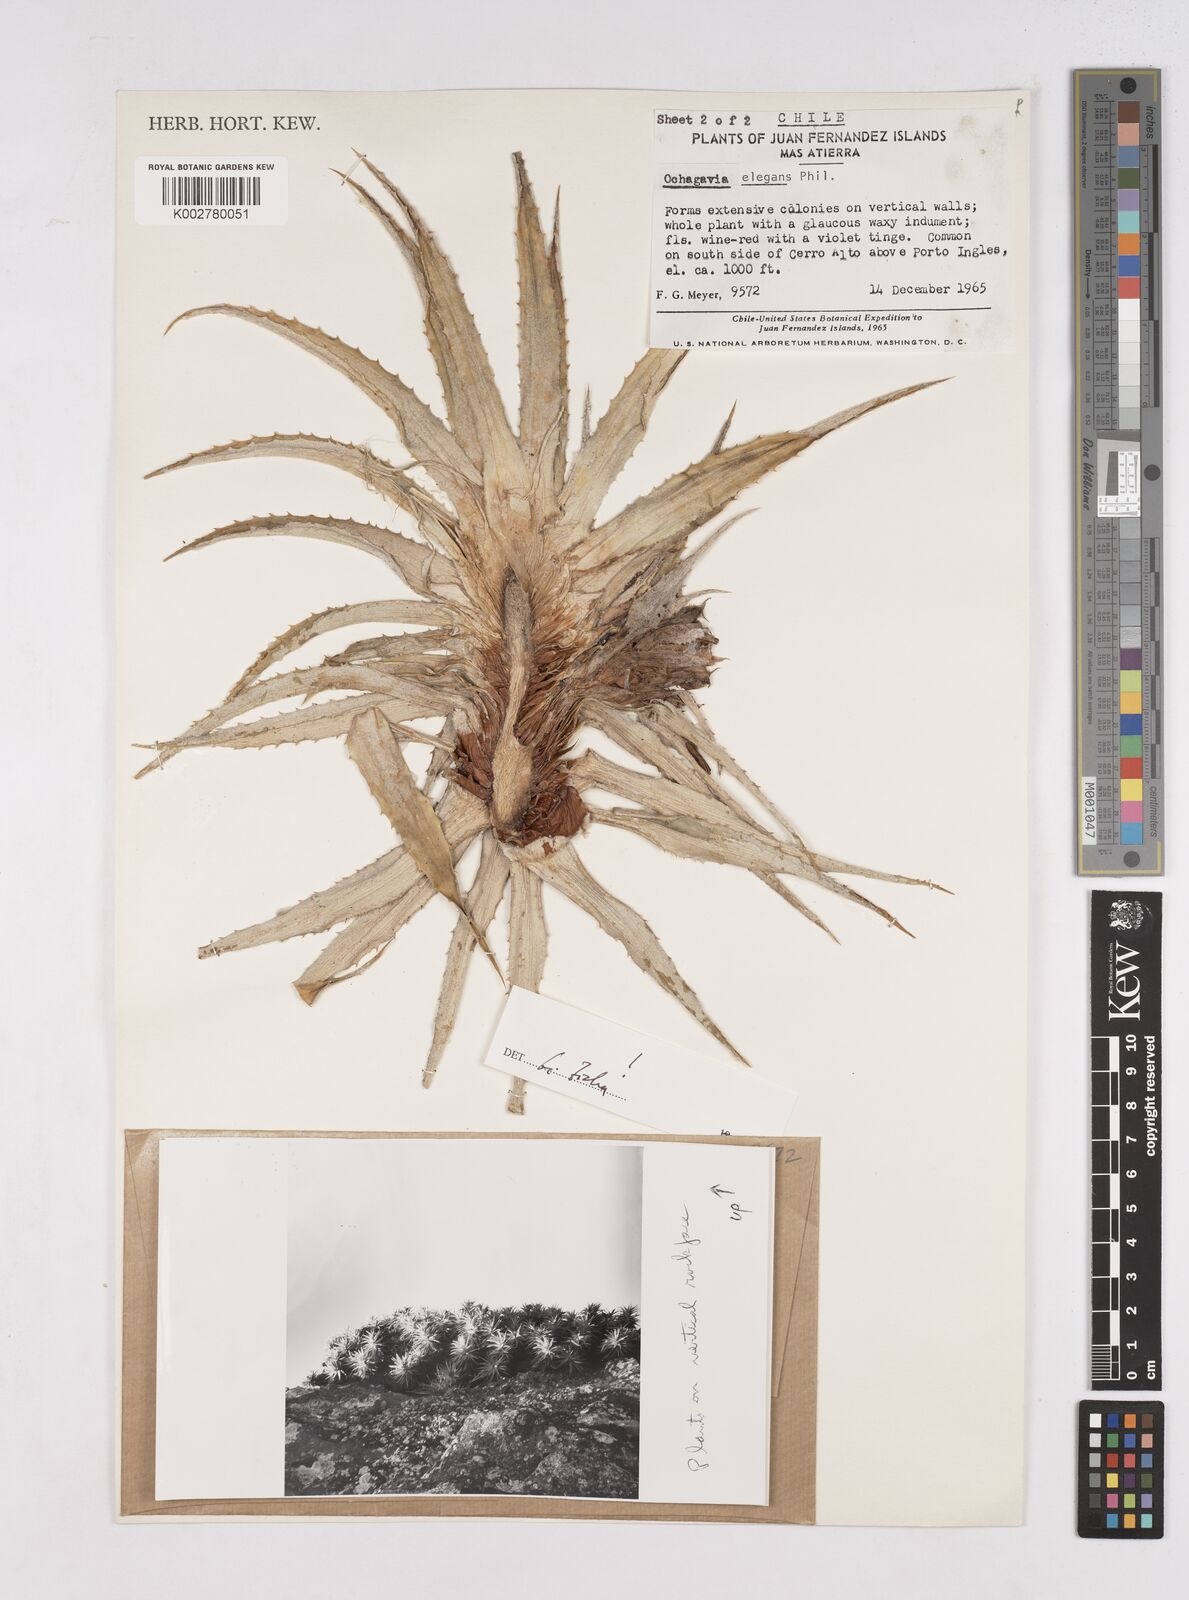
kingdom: Plantae
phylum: Tracheophyta
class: Liliopsida
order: Poales
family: Bromeliaceae
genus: Ochagavia
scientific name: Ochagavia elegans
